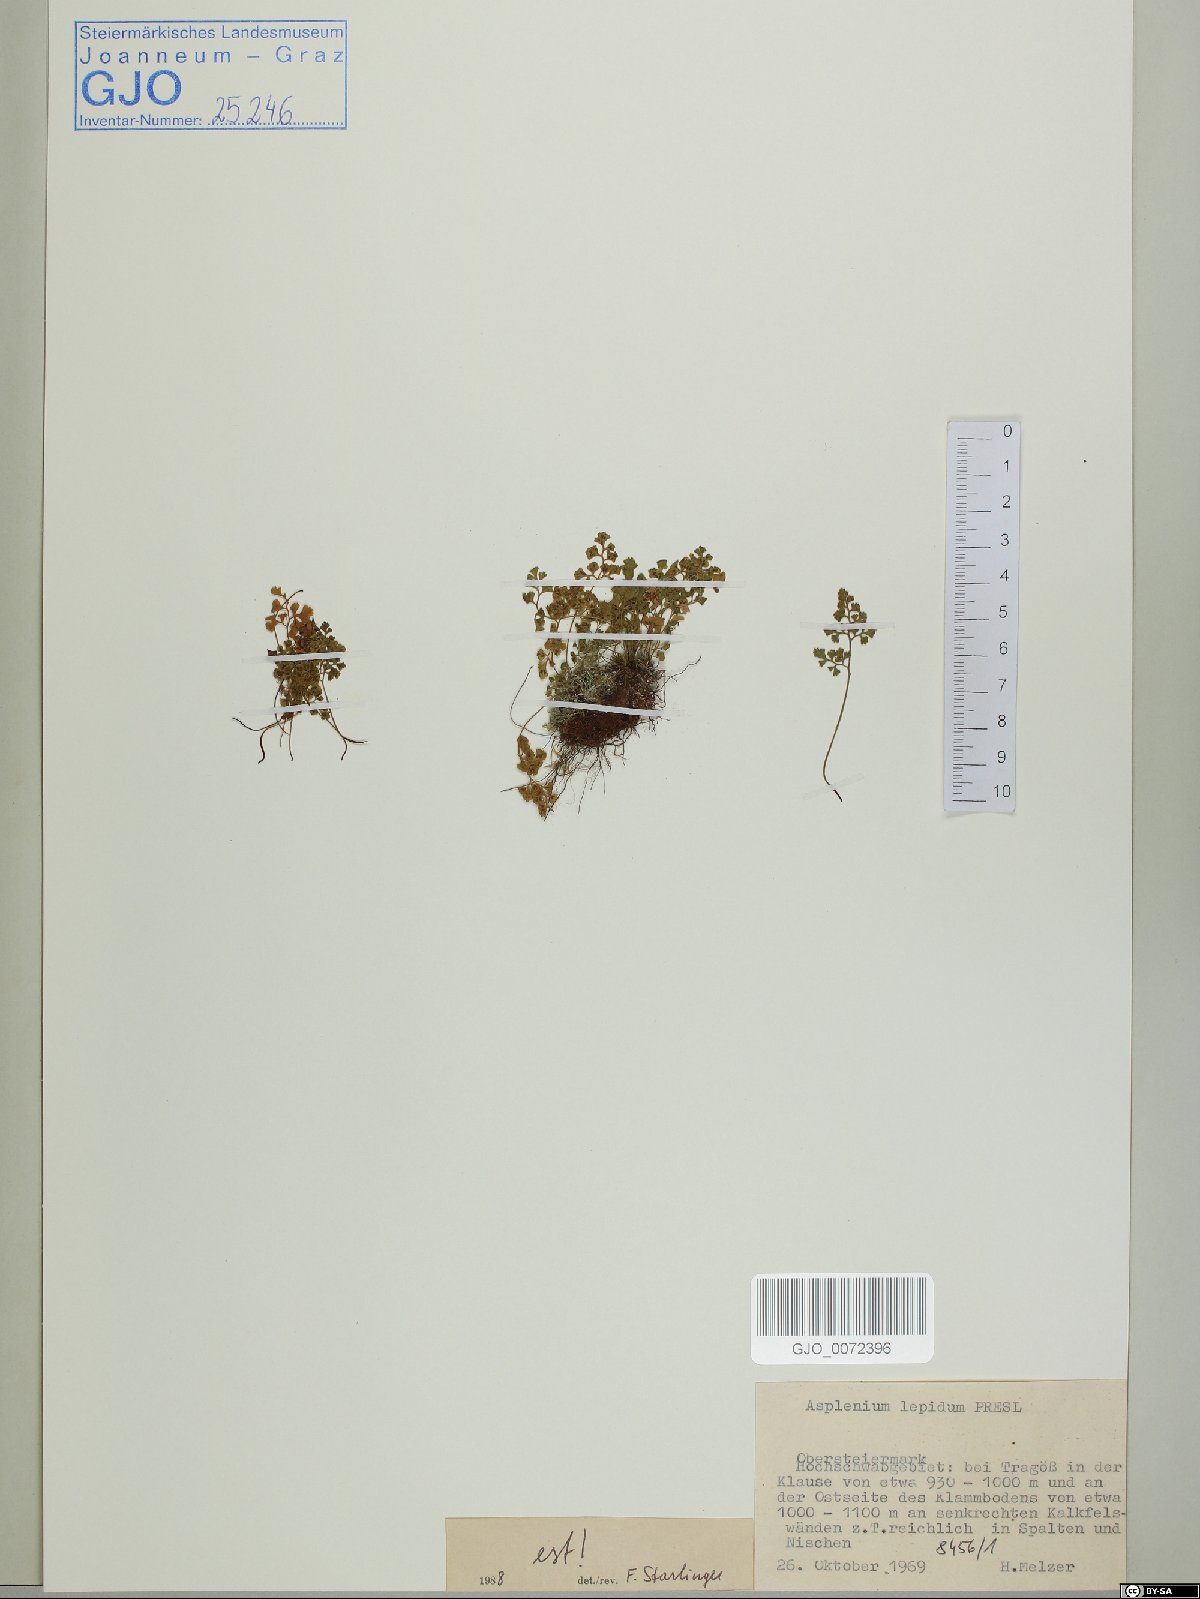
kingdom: Plantae
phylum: Tracheophyta
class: Polypodiopsida
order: Polypodiales
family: Aspleniaceae
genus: Asplenium
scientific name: Asplenium lepidum
